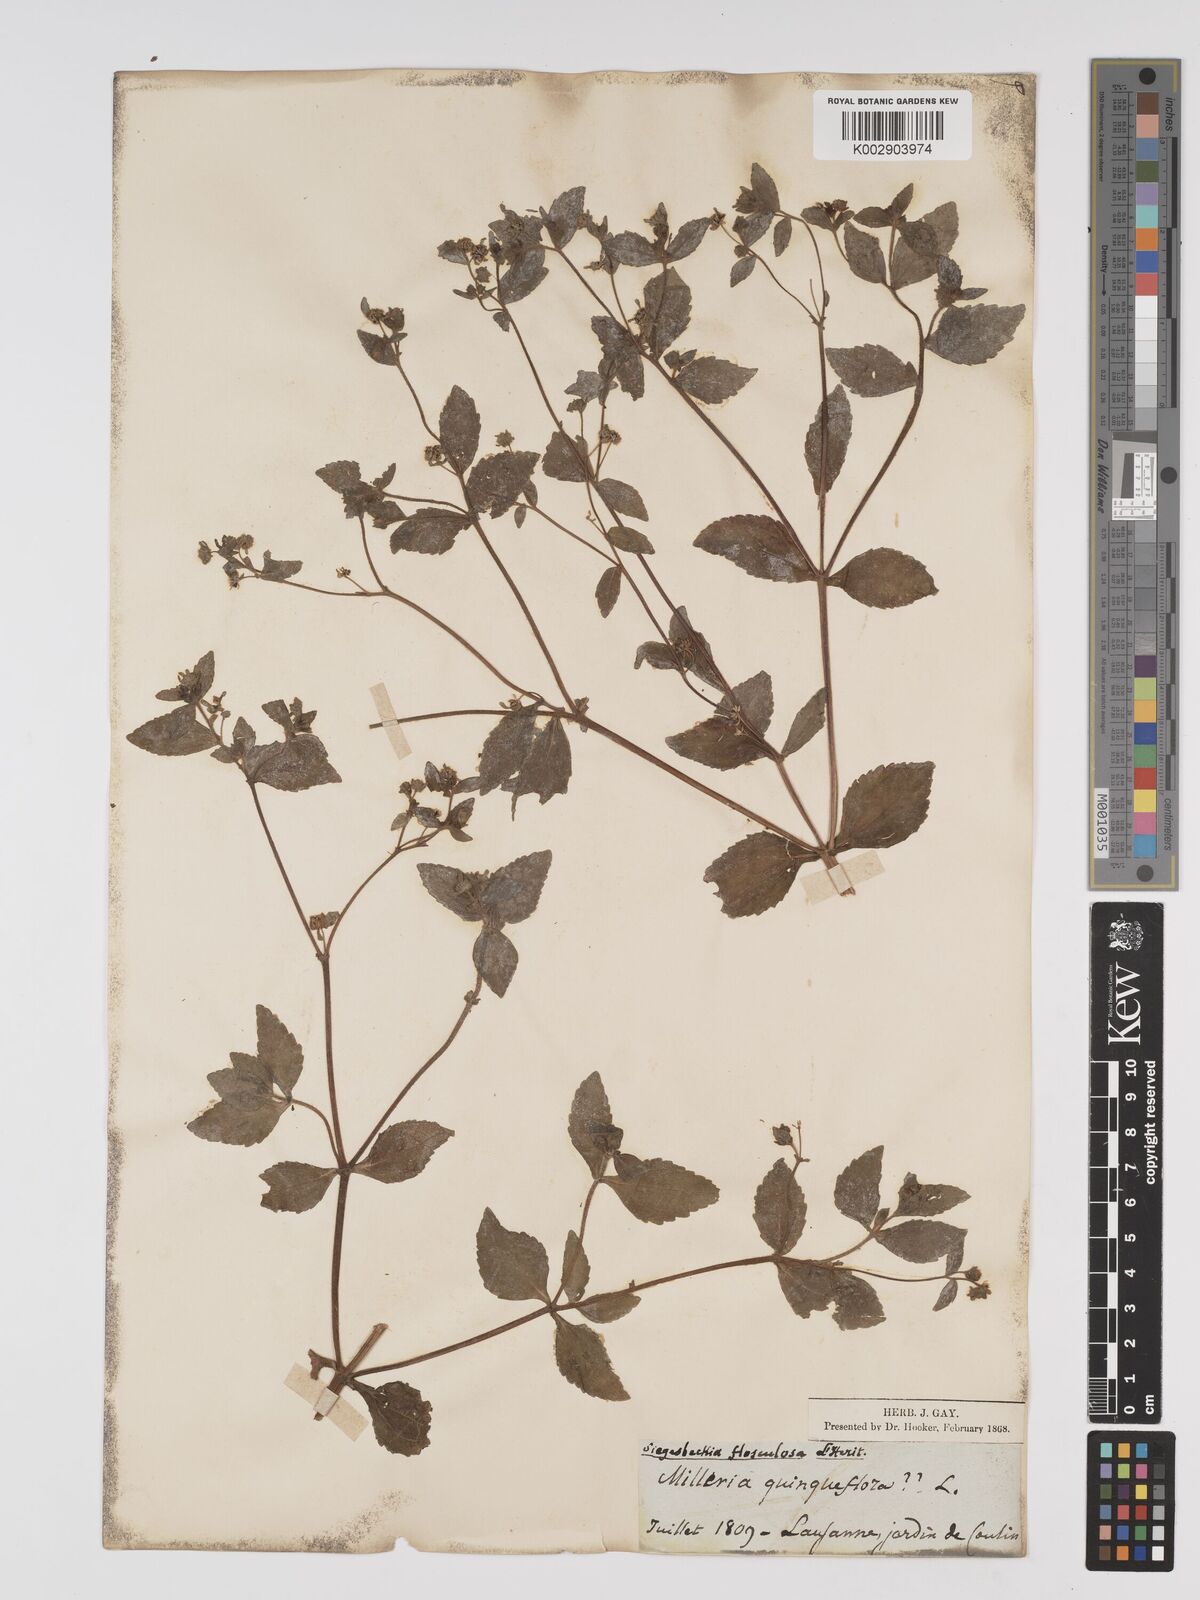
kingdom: Plantae
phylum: Tracheophyta
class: Magnoliopsida
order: Asterales
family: Asteraceae
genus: Sigesbeckia
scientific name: Sigesbeckia flosculosa
